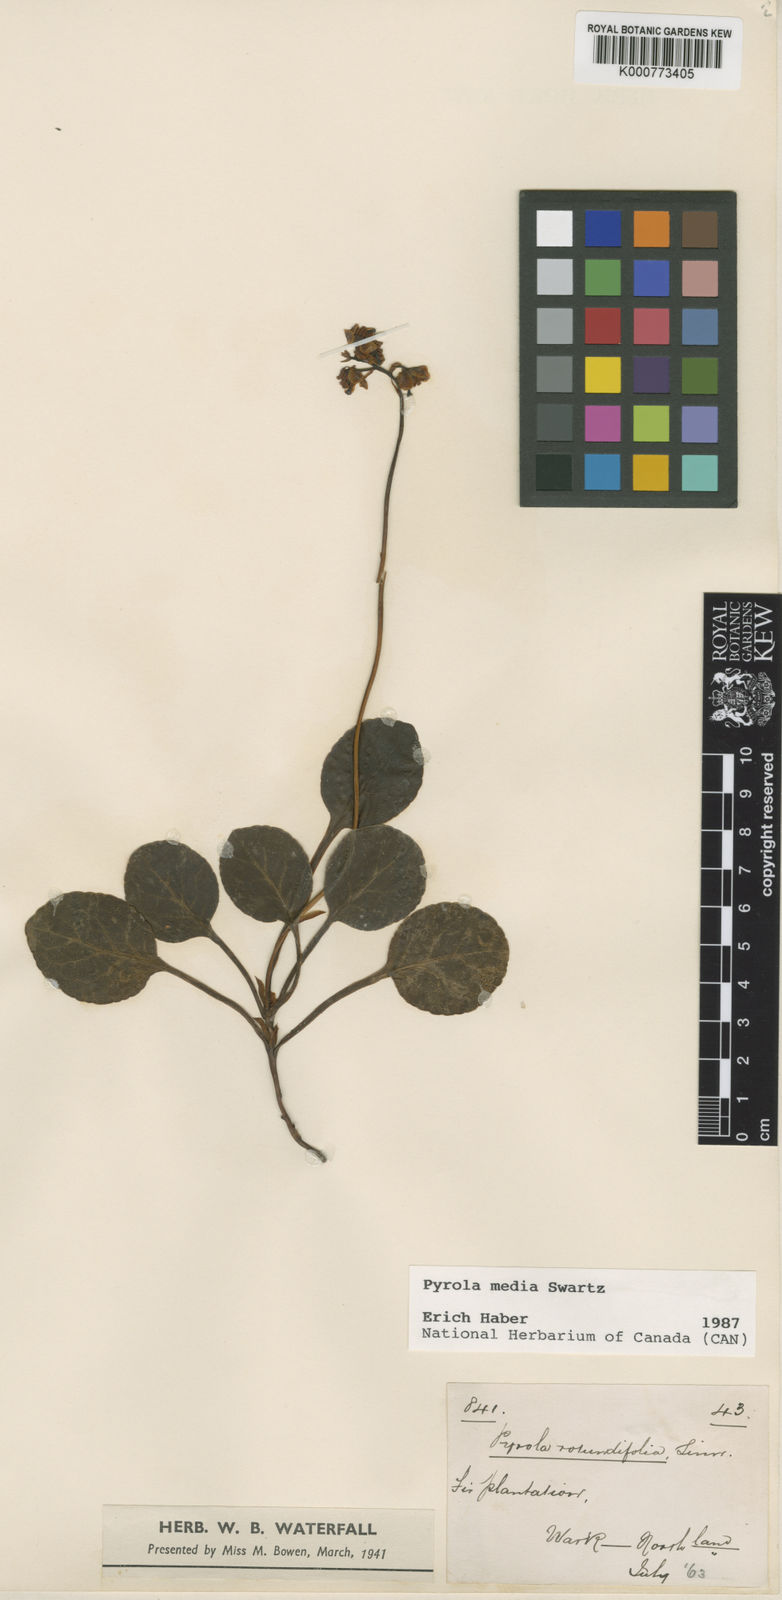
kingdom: Plantae
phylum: Tracheophyta
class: Magnoliopsida
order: Ericales
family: Ericaceae
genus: Pyrola
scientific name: Pyrola media
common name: Intermediate wintergreen
